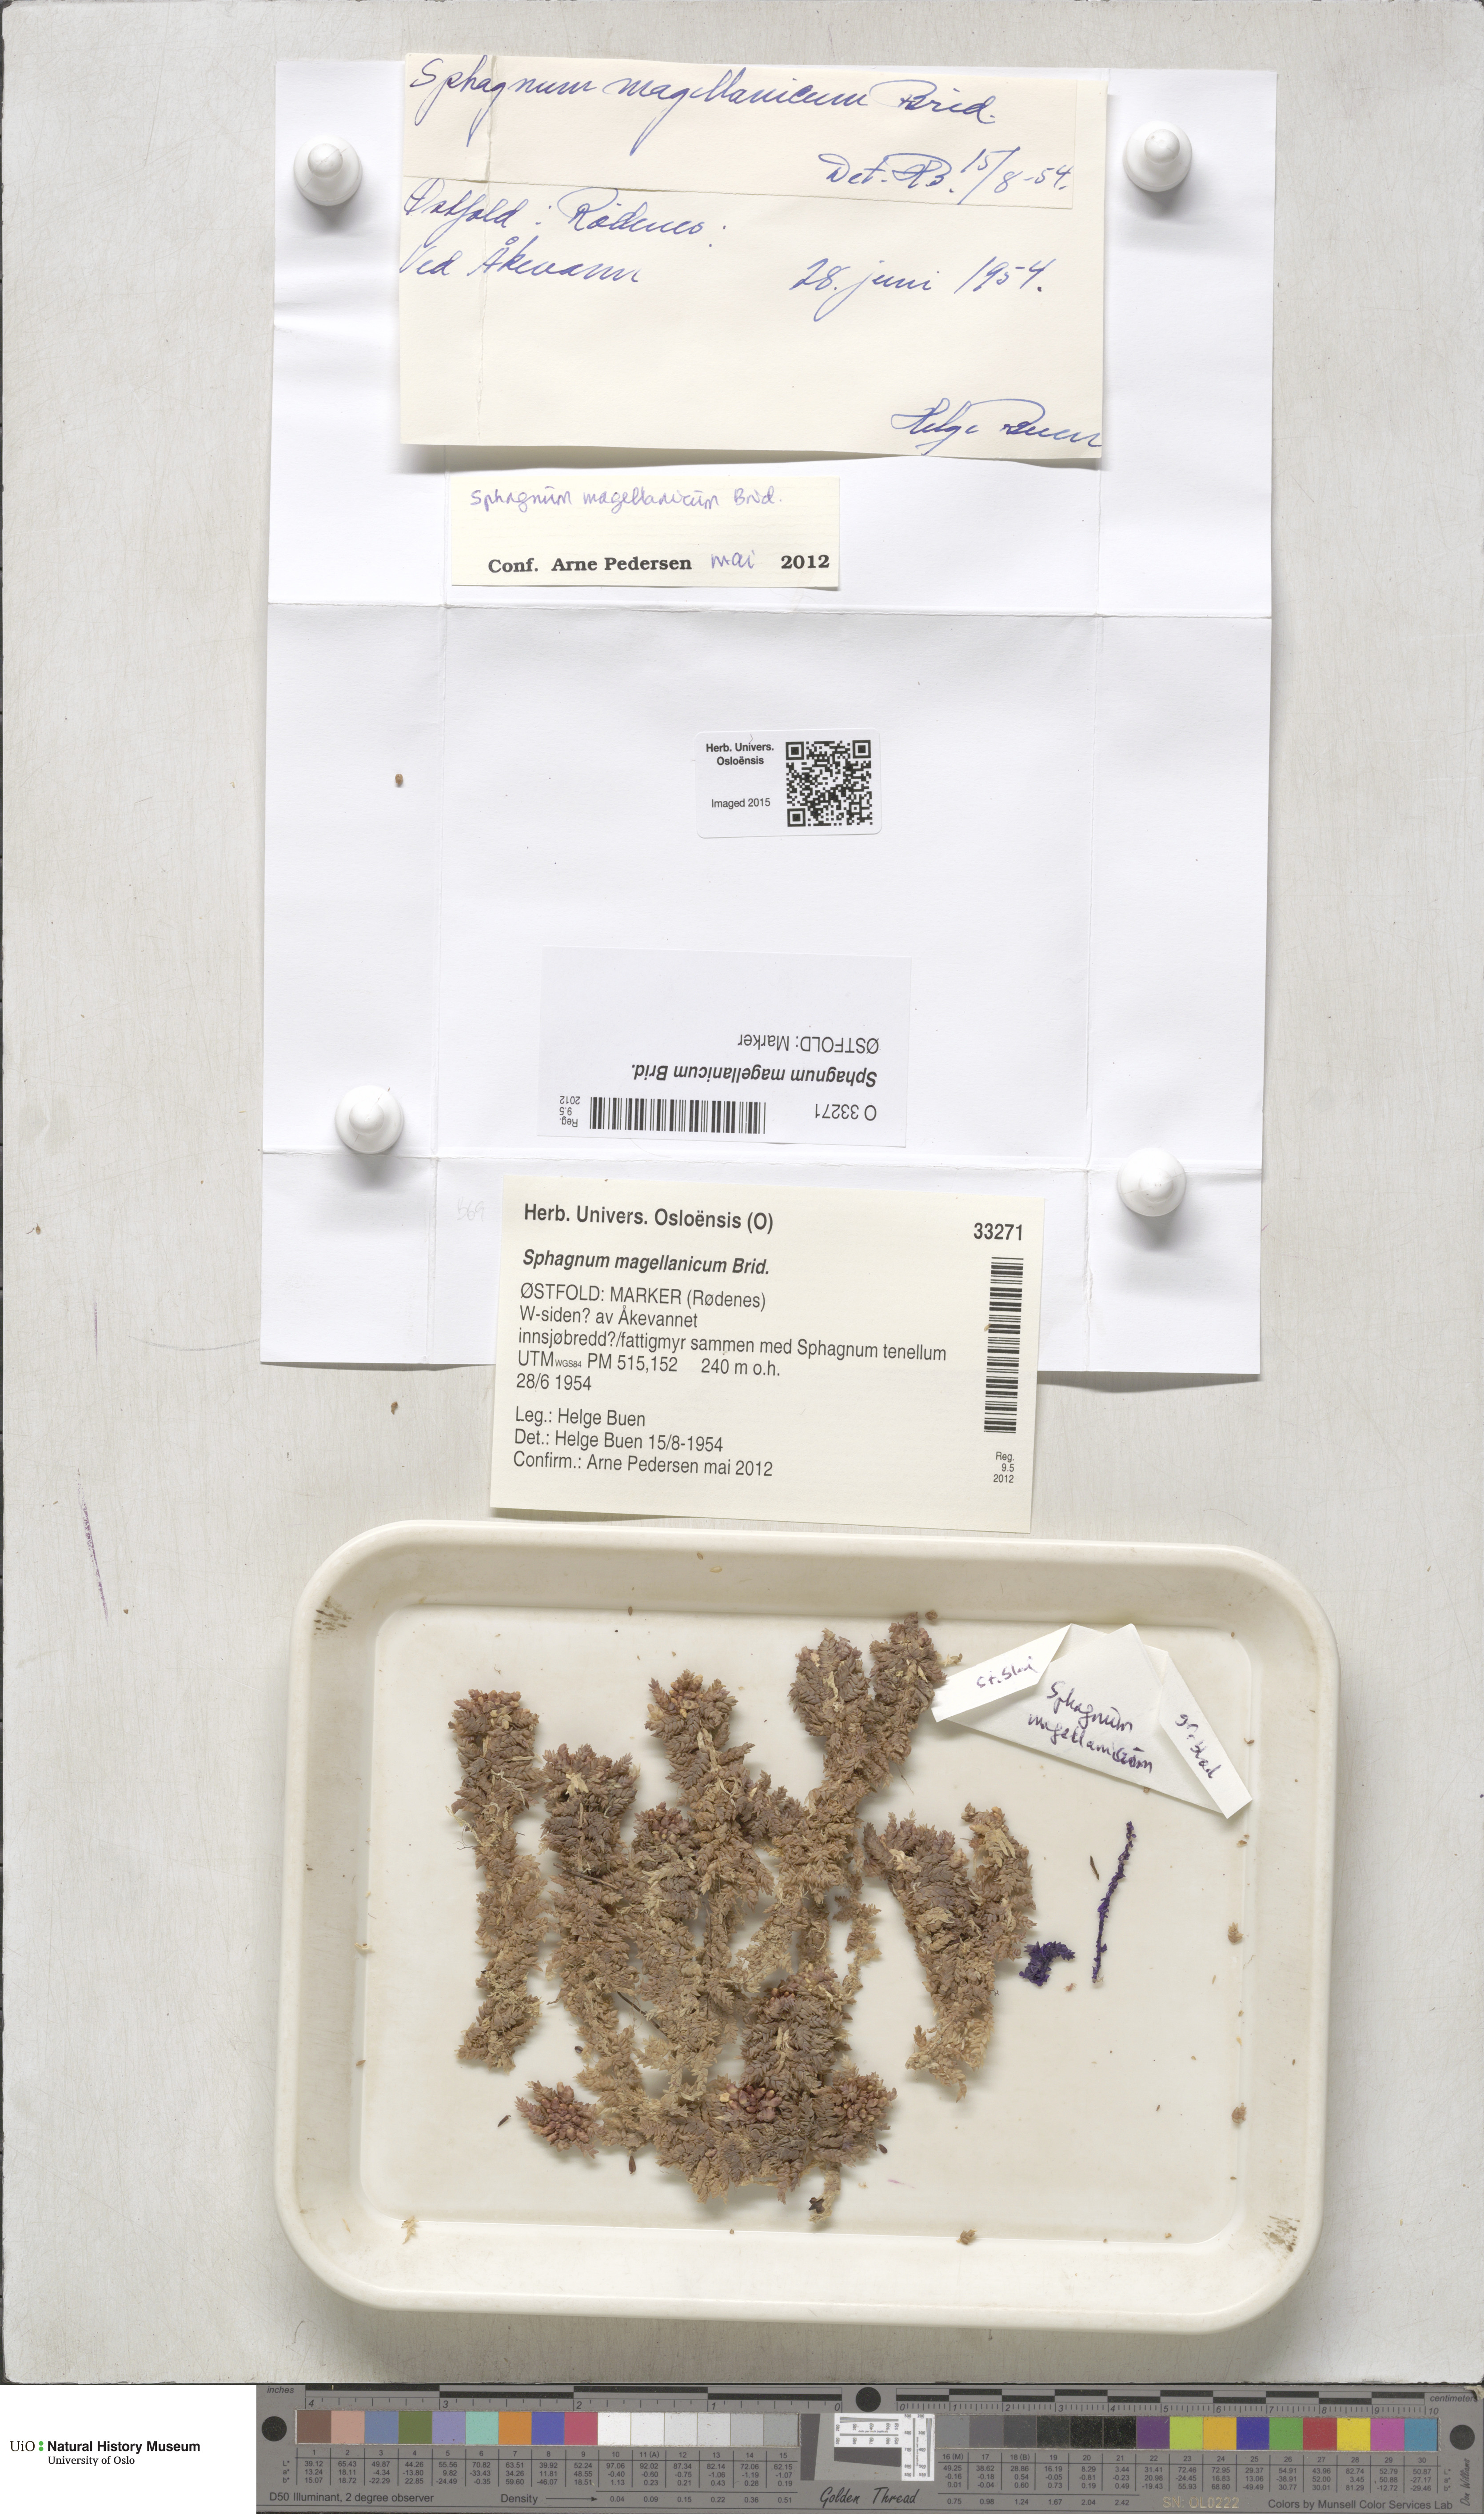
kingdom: Plantae
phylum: Bryophyta
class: Sphagnopsida
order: Sphagnales
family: Sphagnaceae
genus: Sphagnum
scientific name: Sphagnum magellanicum
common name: Magellan's peat moss
